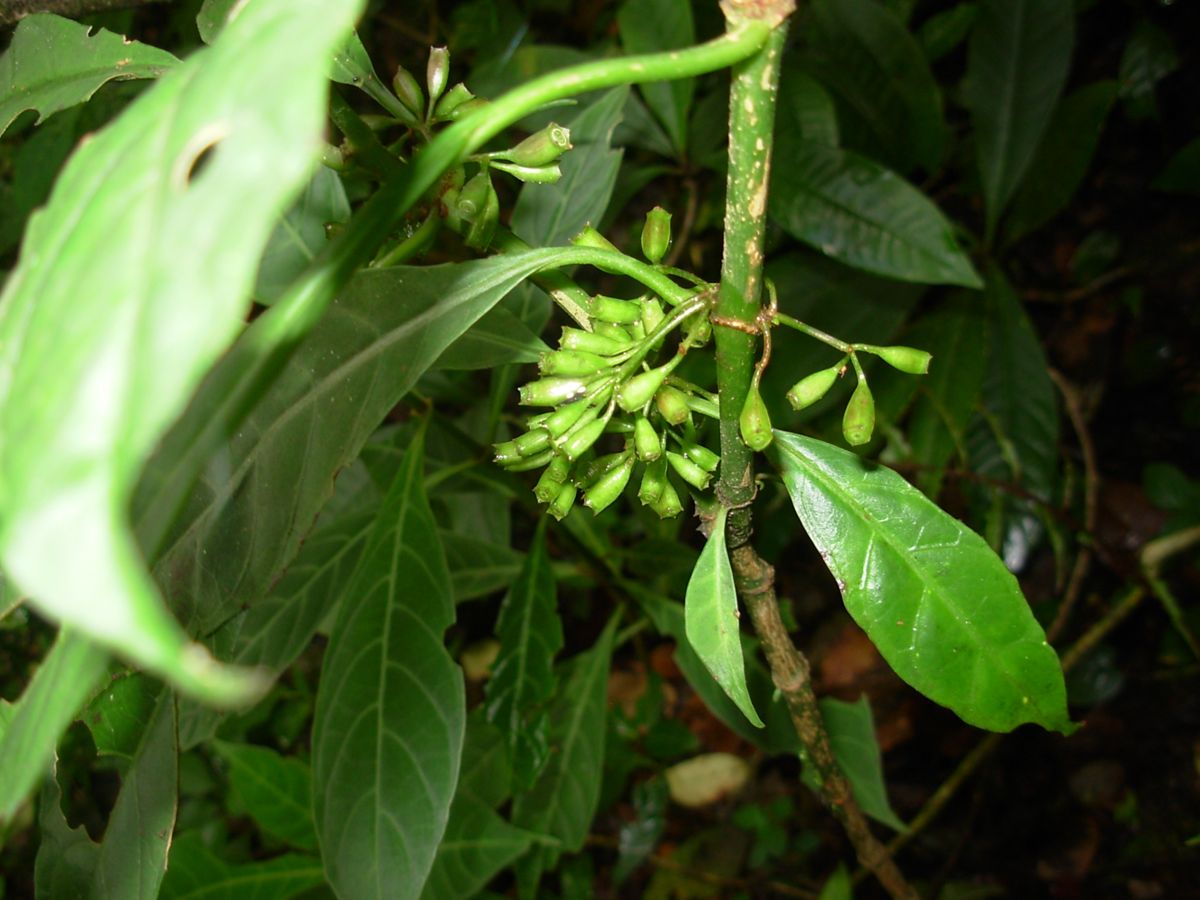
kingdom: Plantae
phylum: Tracheophyta
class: Magnoliopsida
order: Gentianales
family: Rubiaceae
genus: Hoffmannia
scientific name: Hoffmannia nicotianifolia
